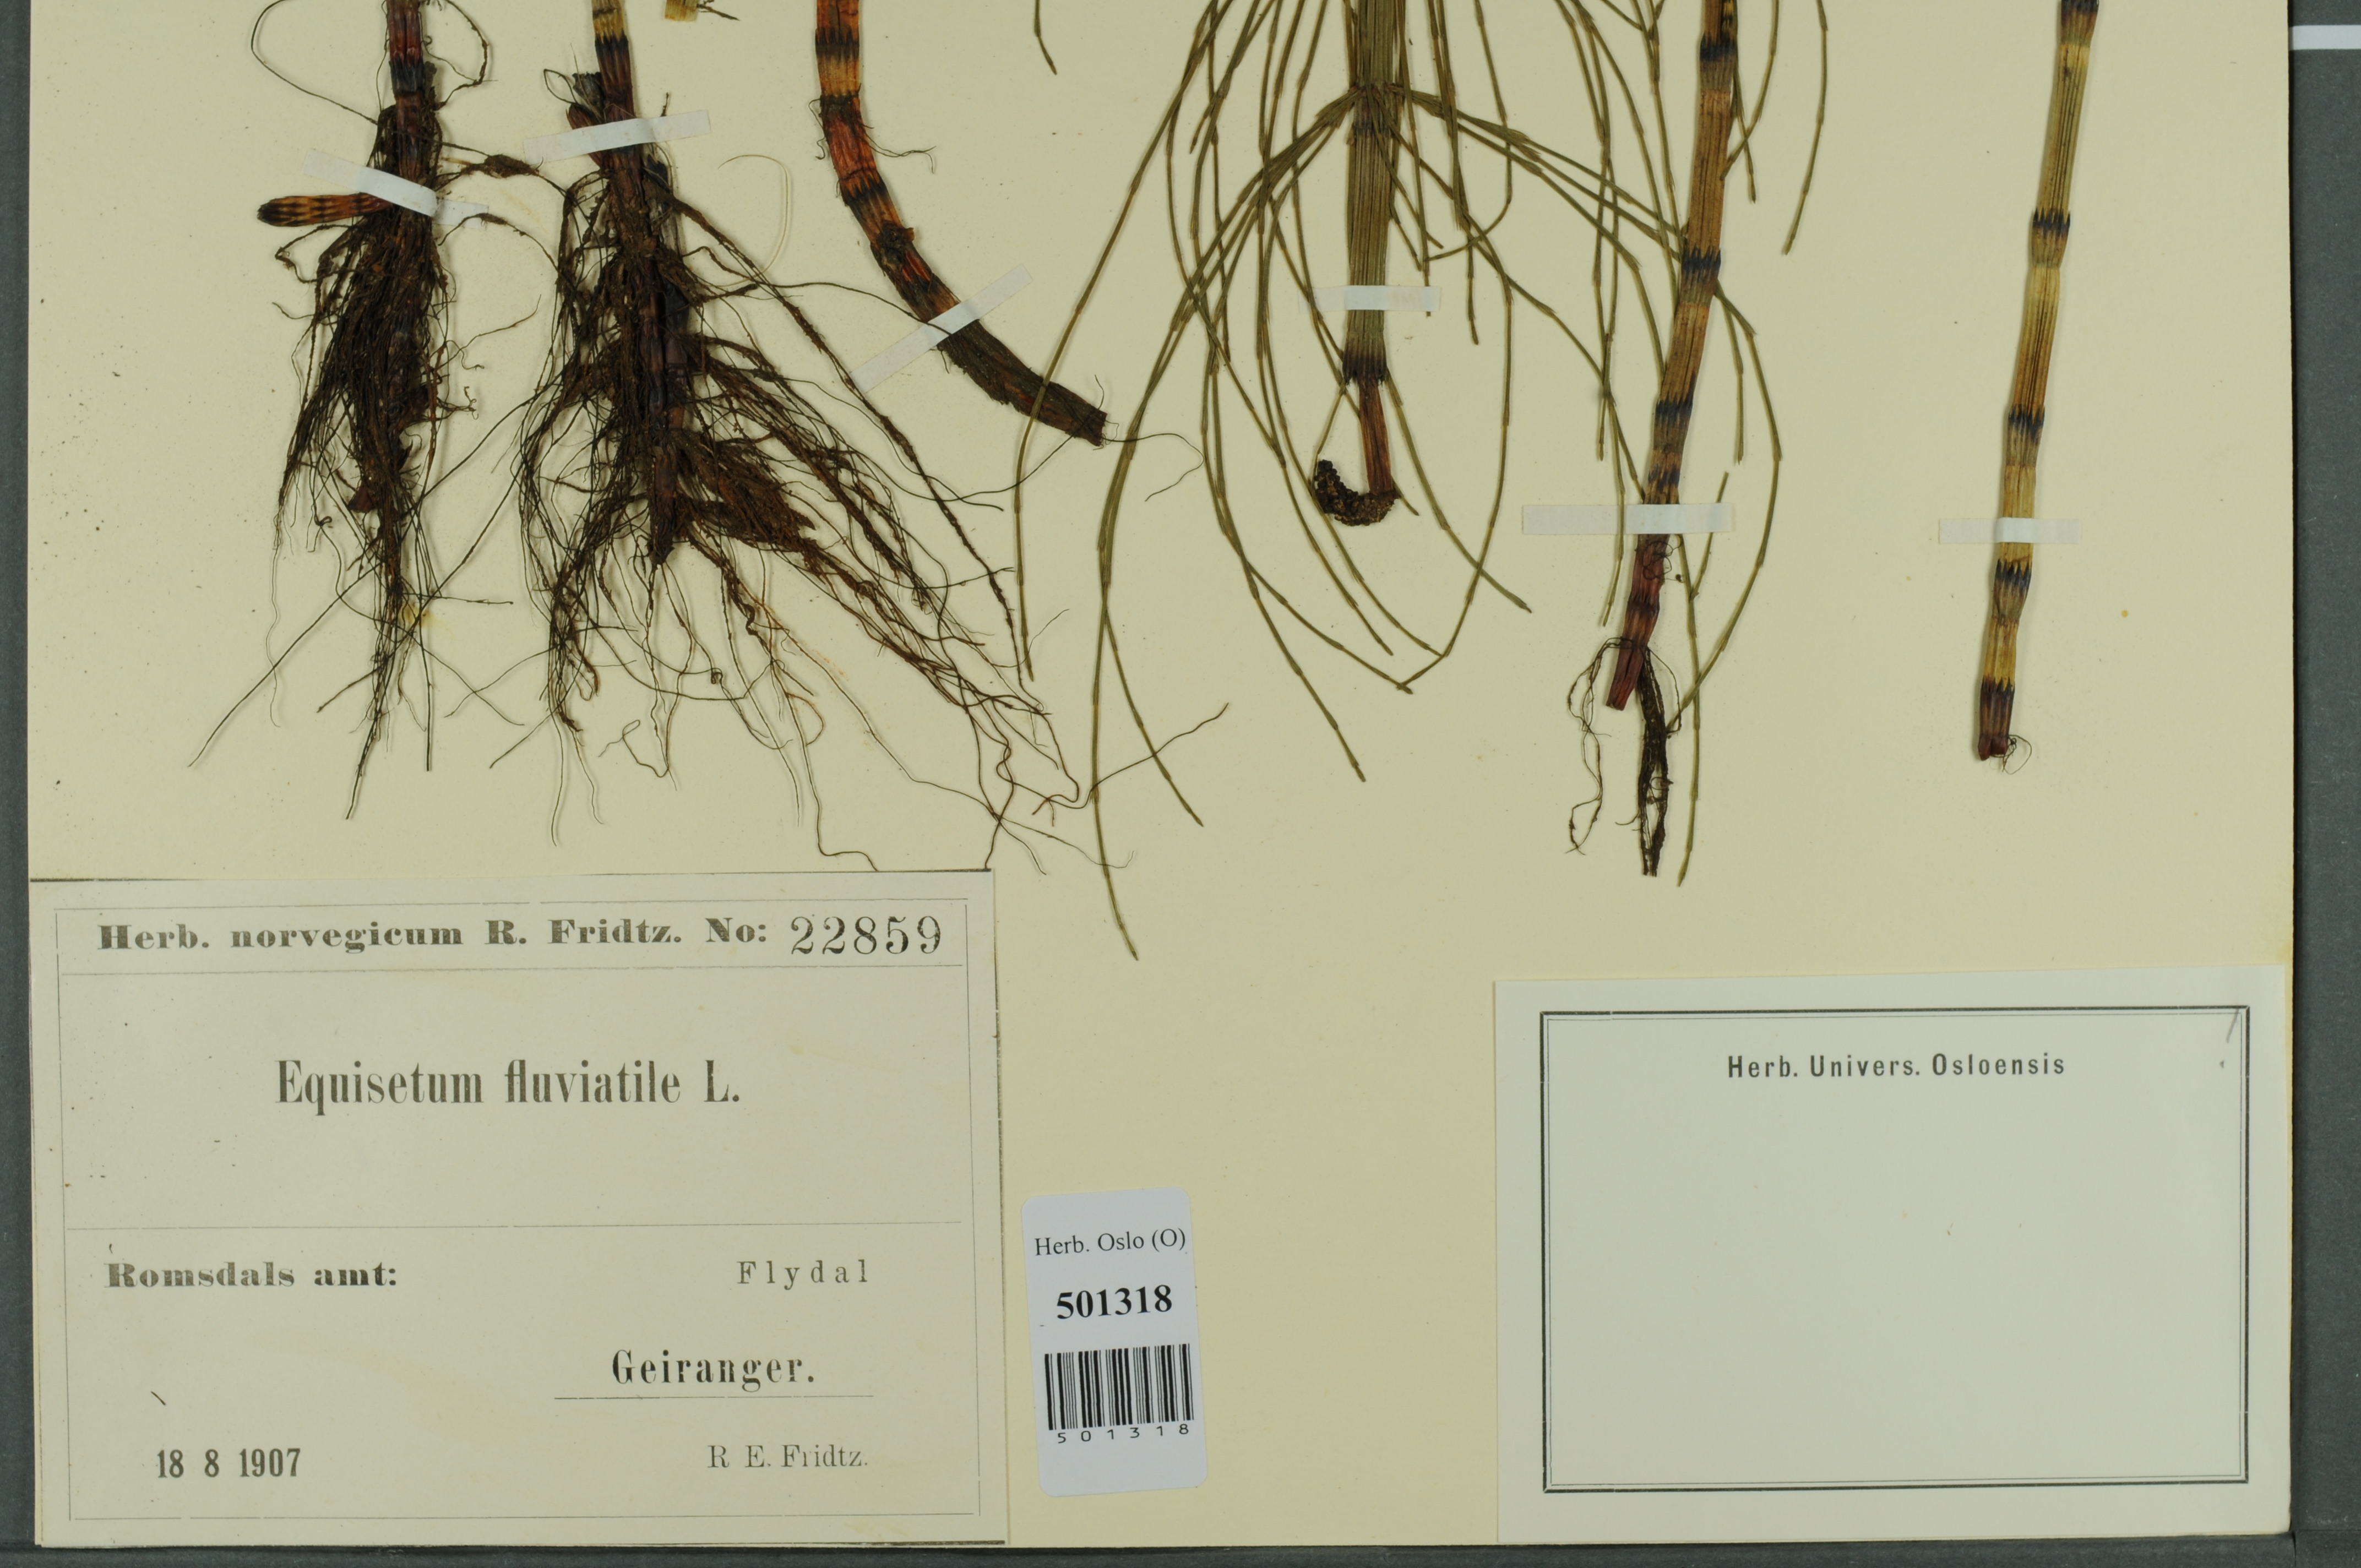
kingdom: Plantae
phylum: Tracheophyta
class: Polypodiopsida
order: Equisetales
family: Equisetaceae
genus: Equisetum
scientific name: Equisetum fluviatile
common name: Water horsetail
